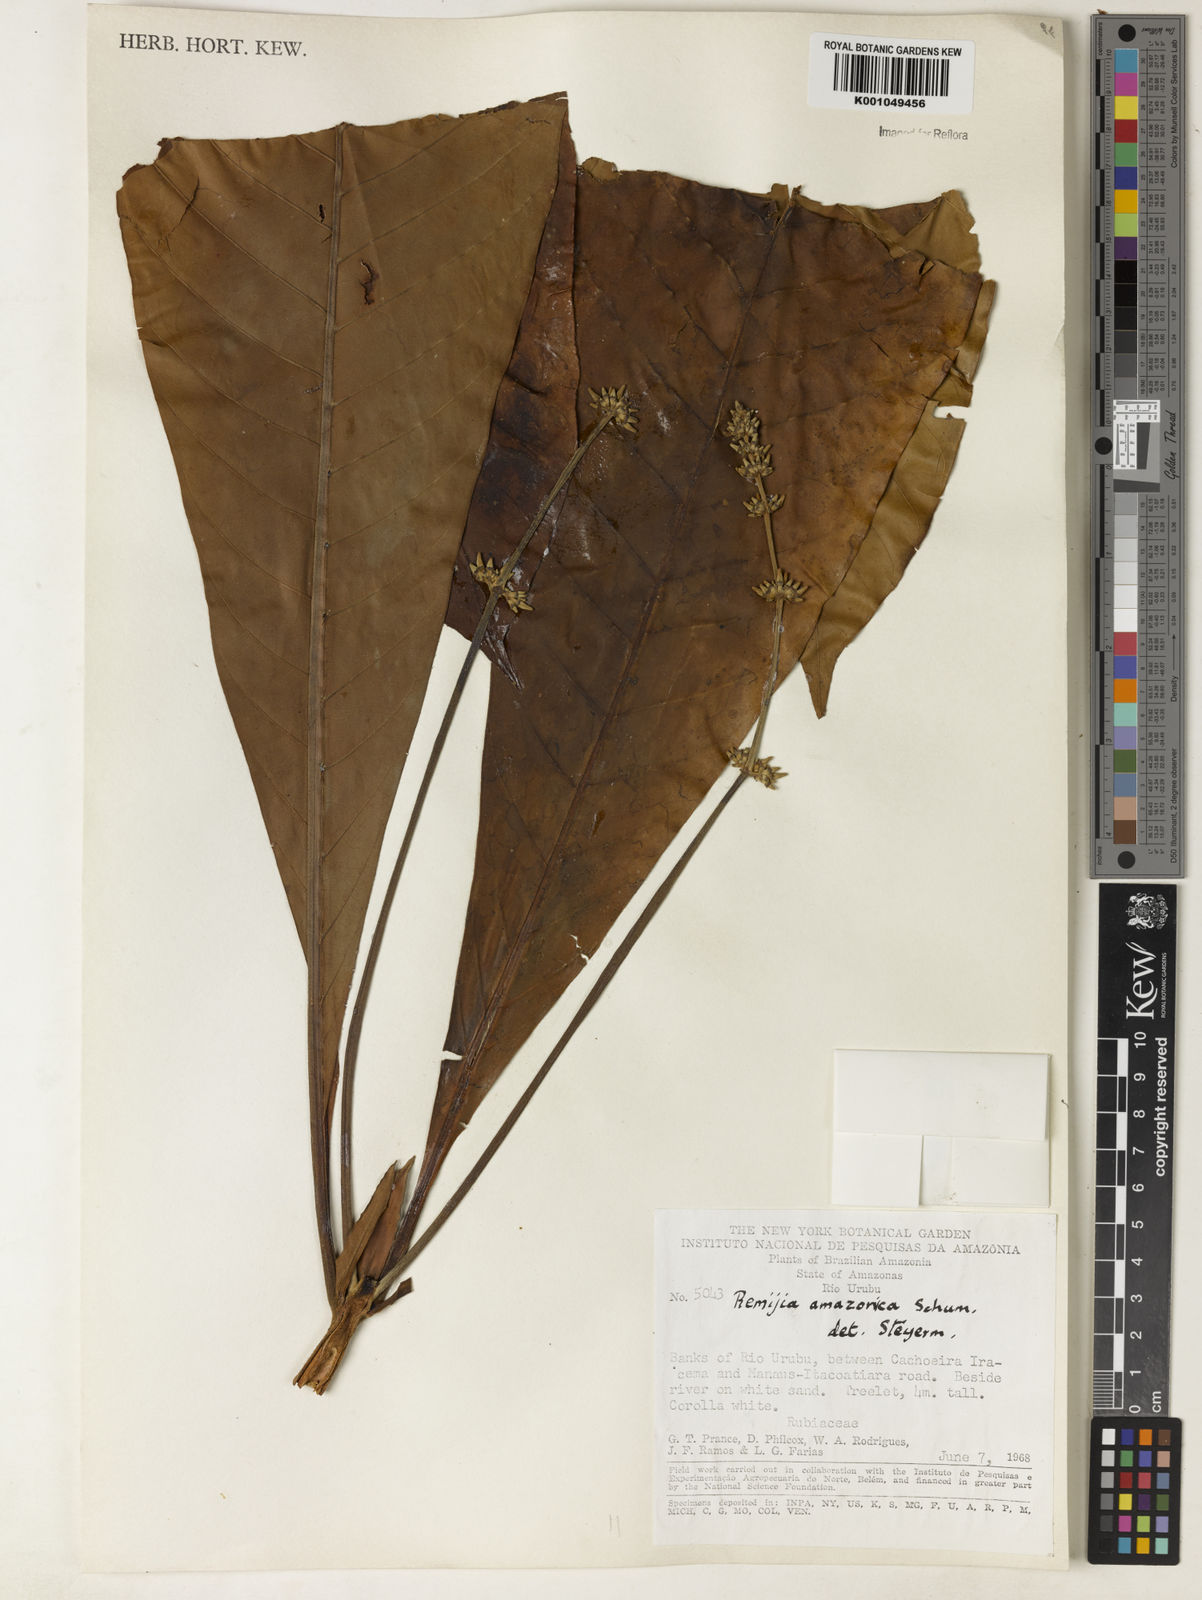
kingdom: Plantae
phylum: Tracheophyta
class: Magnoliopsida
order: Gentianales
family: Rubiaceae
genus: Remijia
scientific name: Remijia amazonica
